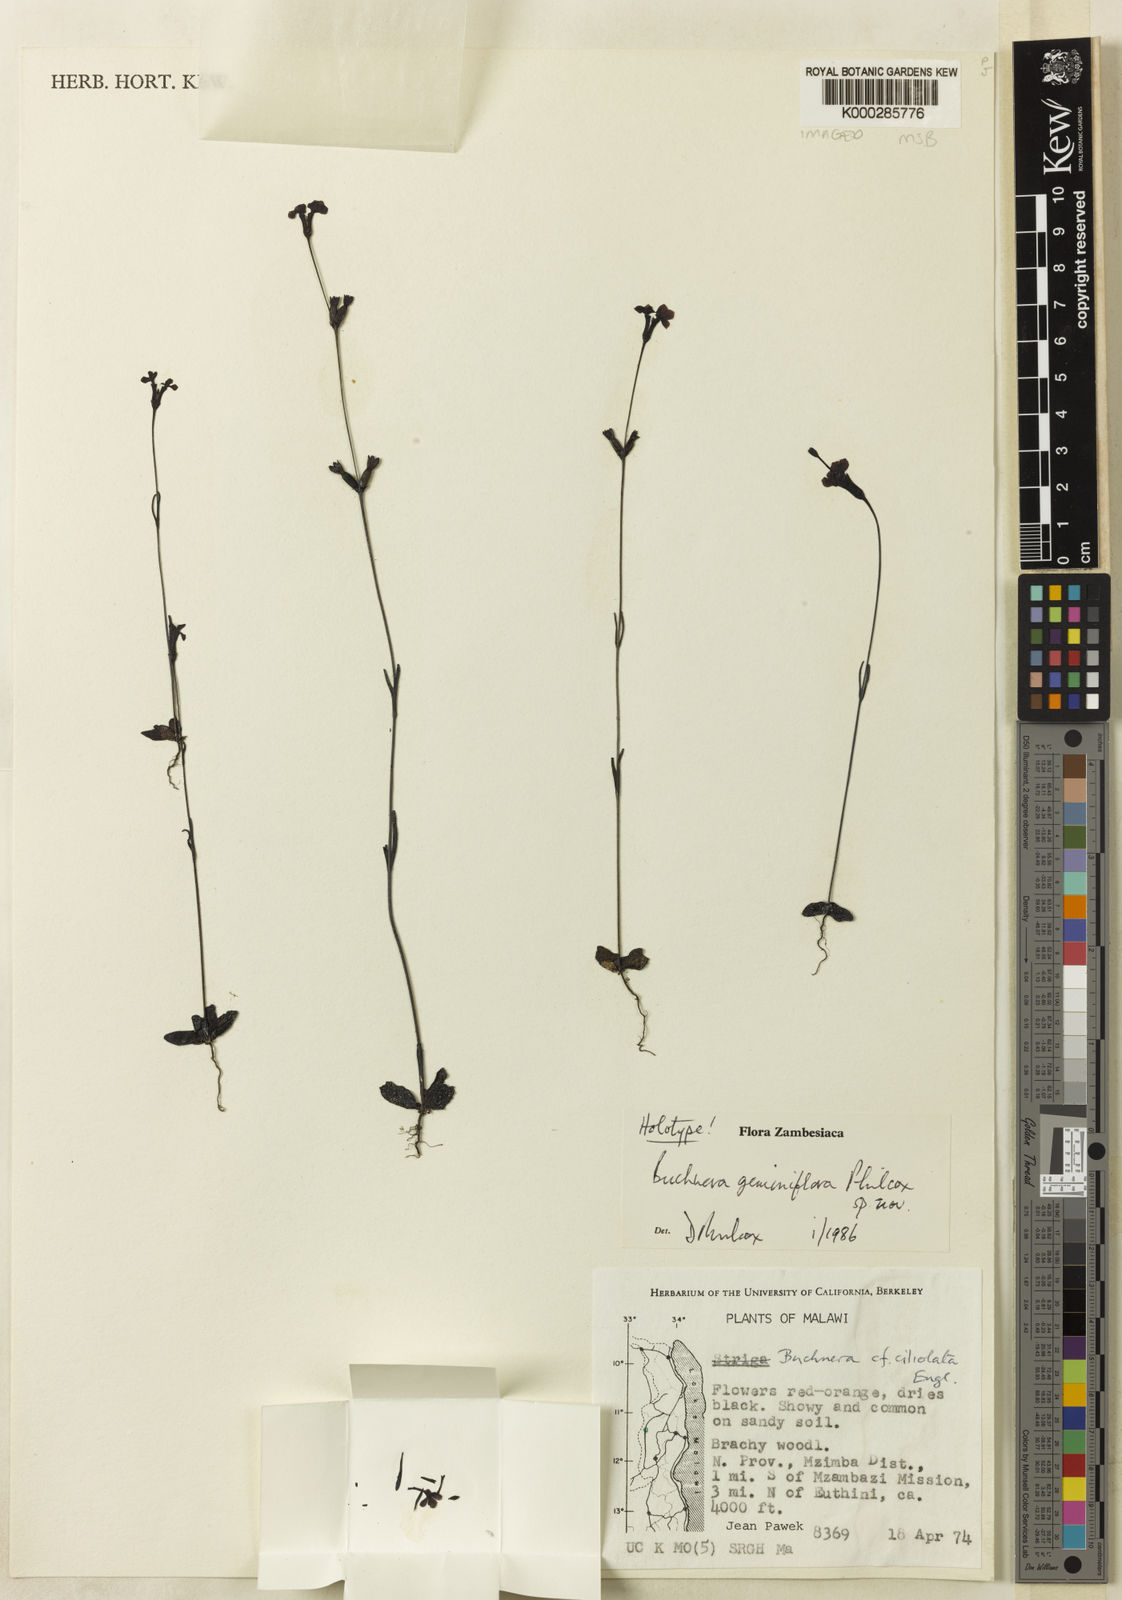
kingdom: Plantae
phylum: Tracheophyta
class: Magnoliopsida
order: Lamiales
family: Orobanchaceae
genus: Buchnera
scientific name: Buchnera geminiflora
